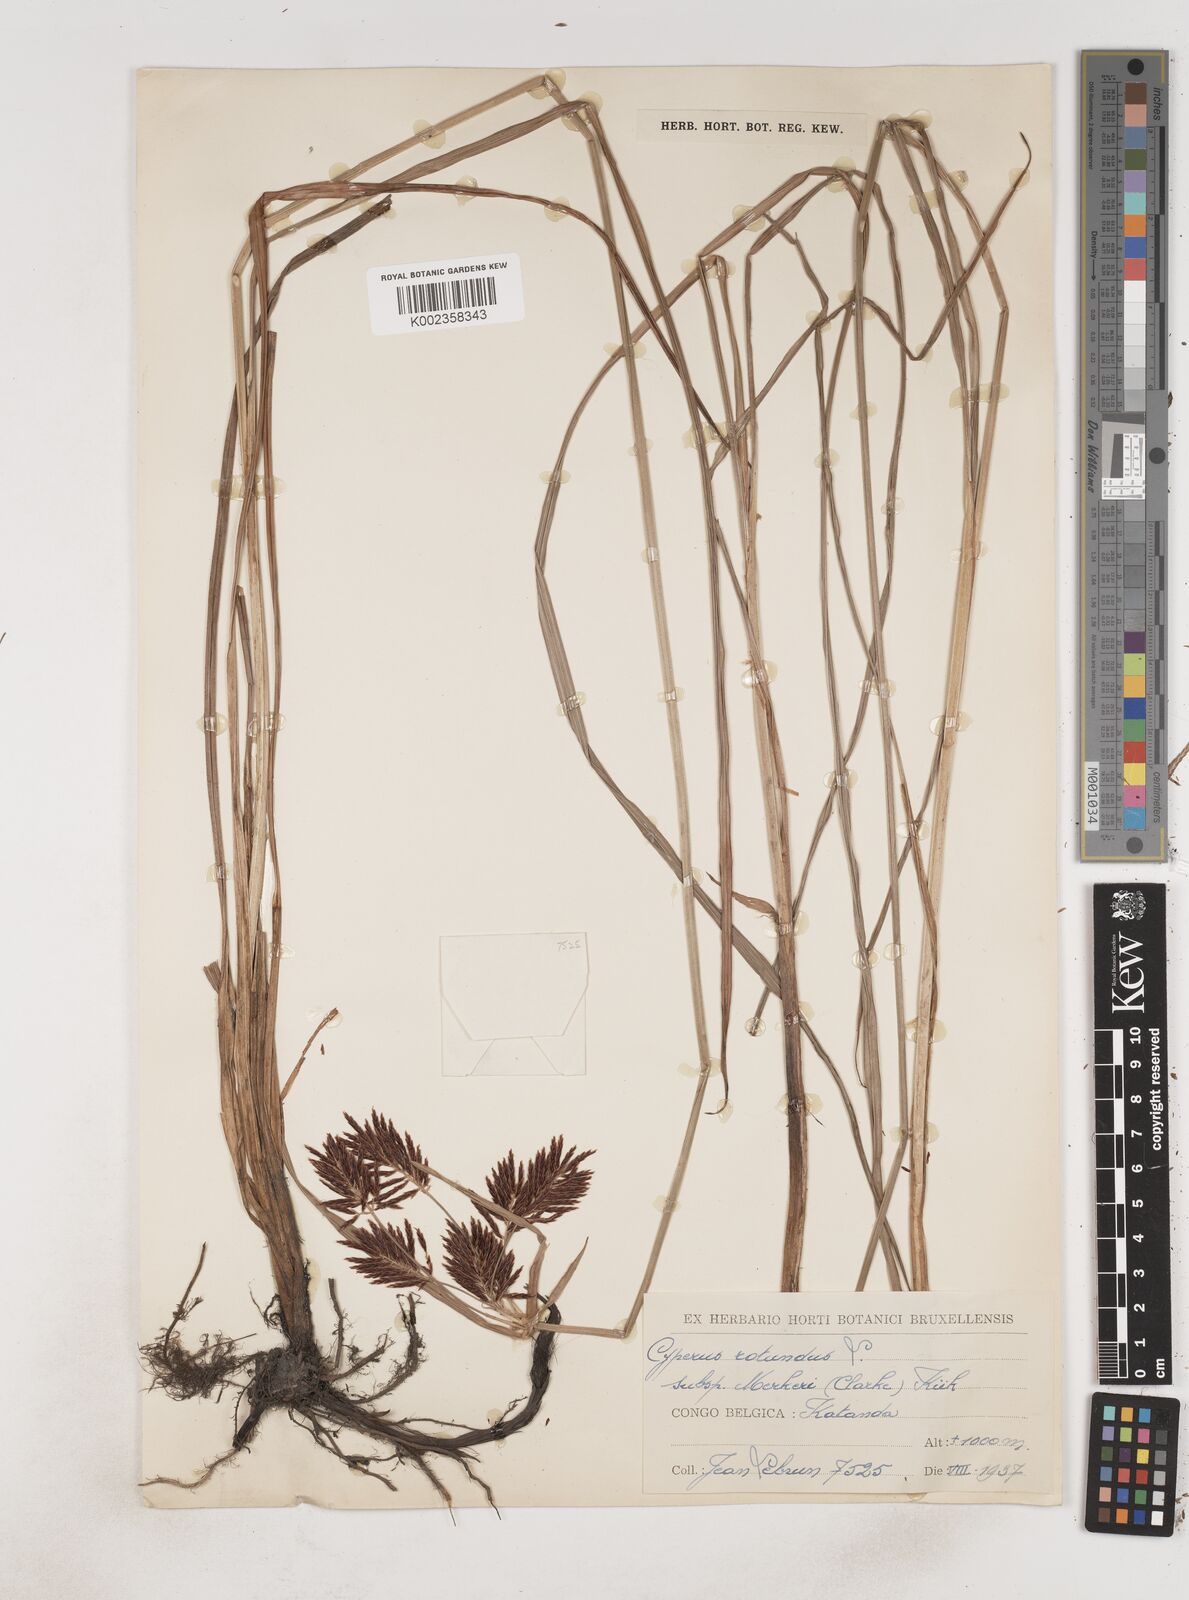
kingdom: Plantae
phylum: Tracheophyta
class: Liliopsida
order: Poales
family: Cyperaceae
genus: Cyperus
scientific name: Cyperus tuberosus
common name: Nut grass
